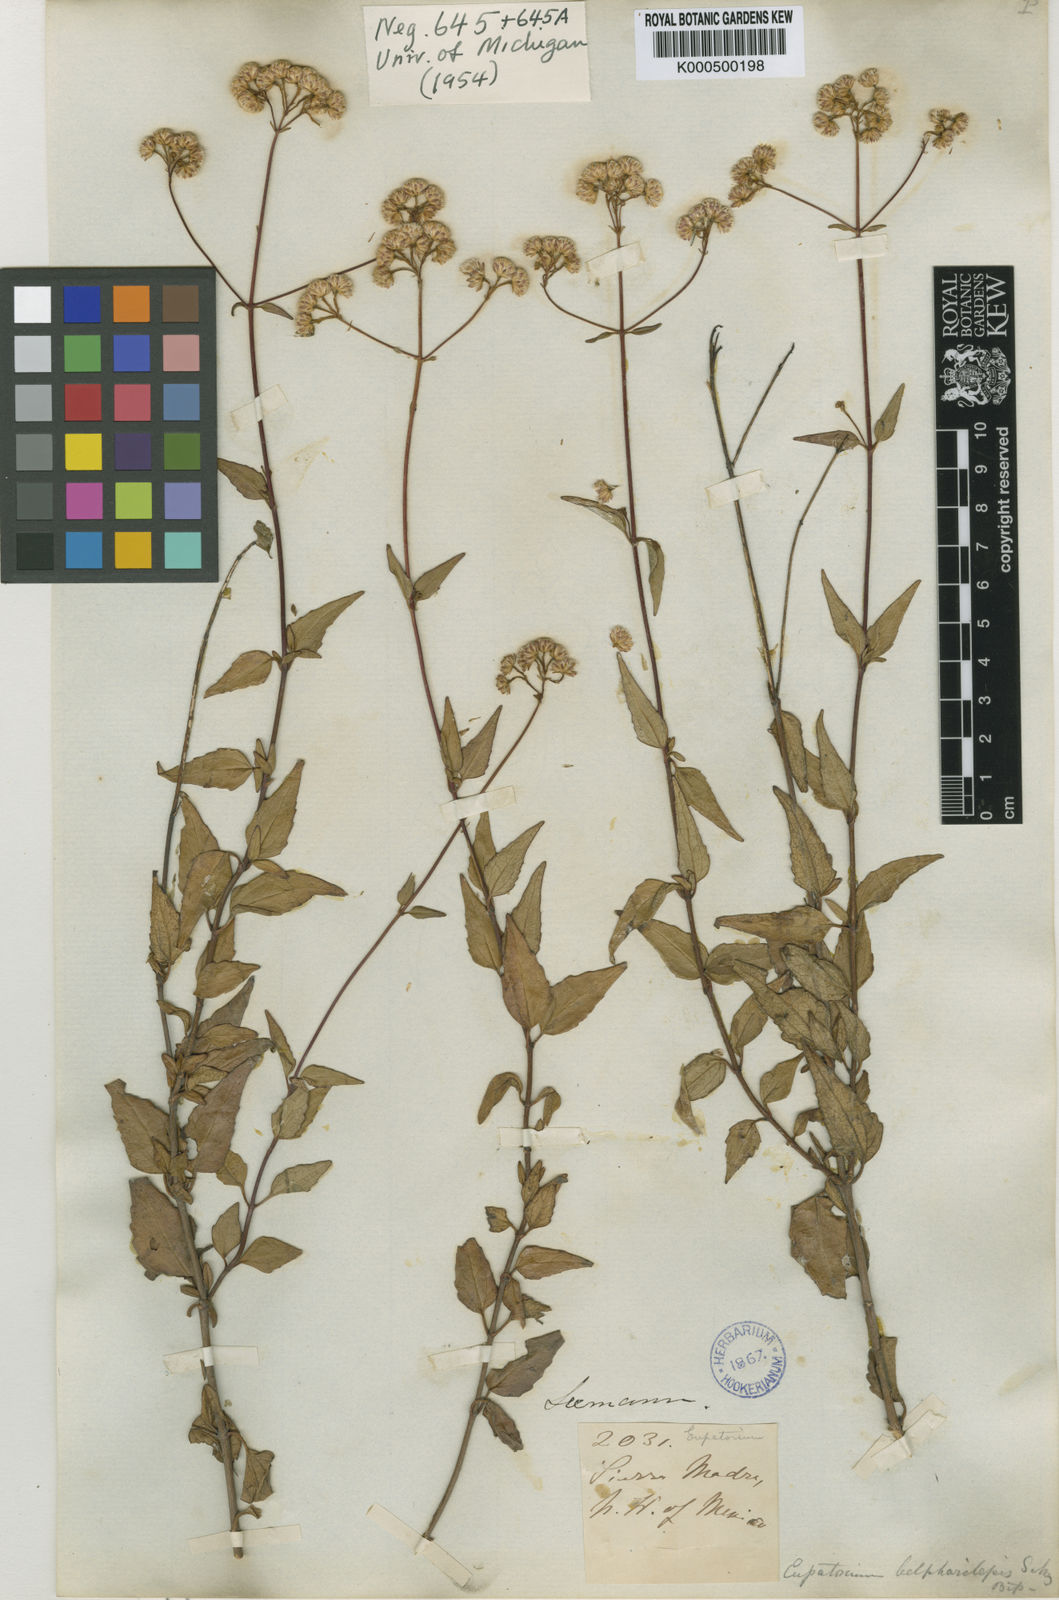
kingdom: Plantae
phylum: Tracheophyta
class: Magnoliopsida
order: Asterales
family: Asteraceae
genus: Ageratina
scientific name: Ageratina blepharilepis
